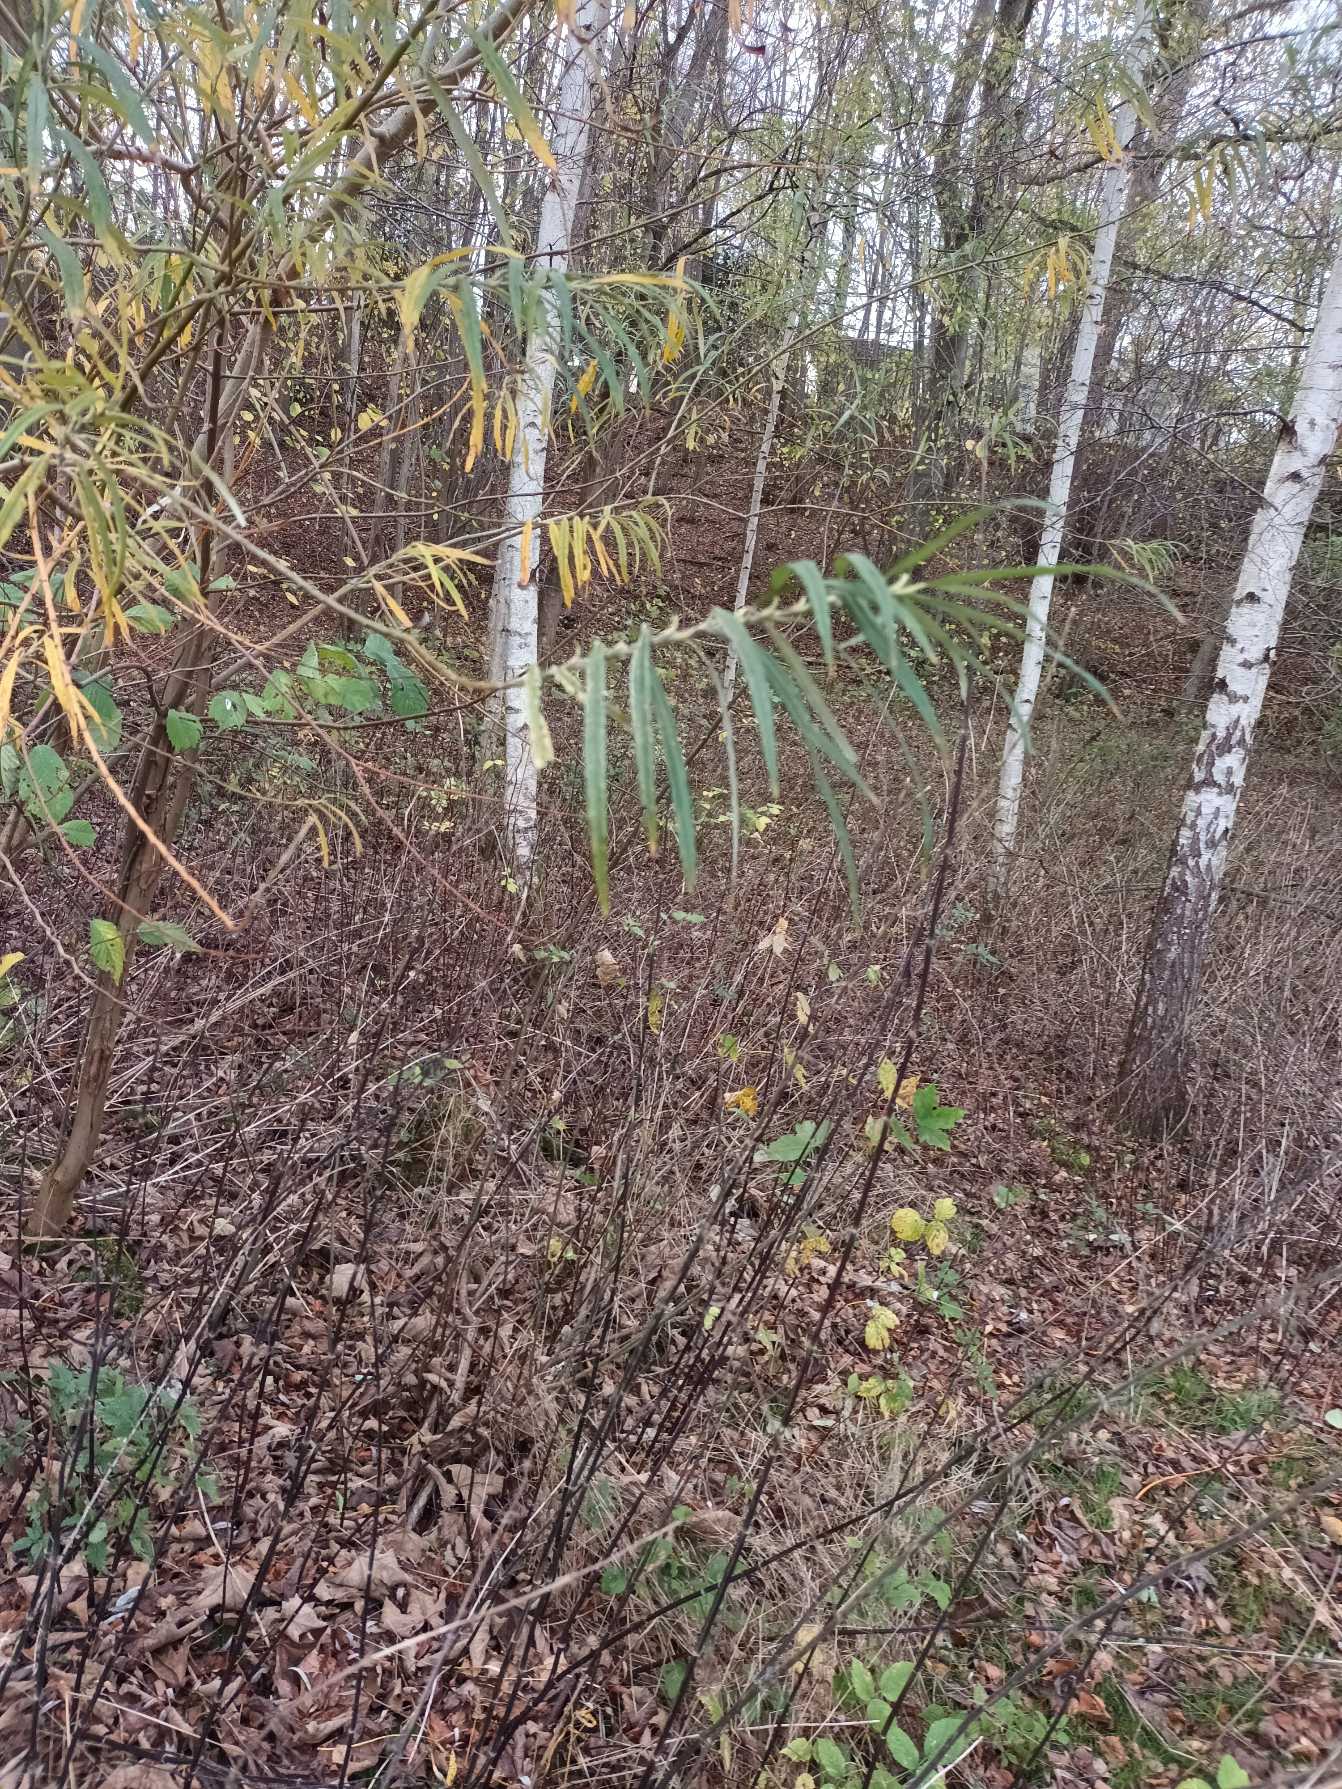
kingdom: Plantae
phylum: Tracheophyta
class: Magnoliopsida
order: Malpighiales
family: Salicaceae
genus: Salix
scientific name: Salix viminalis
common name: Bånd-pil
